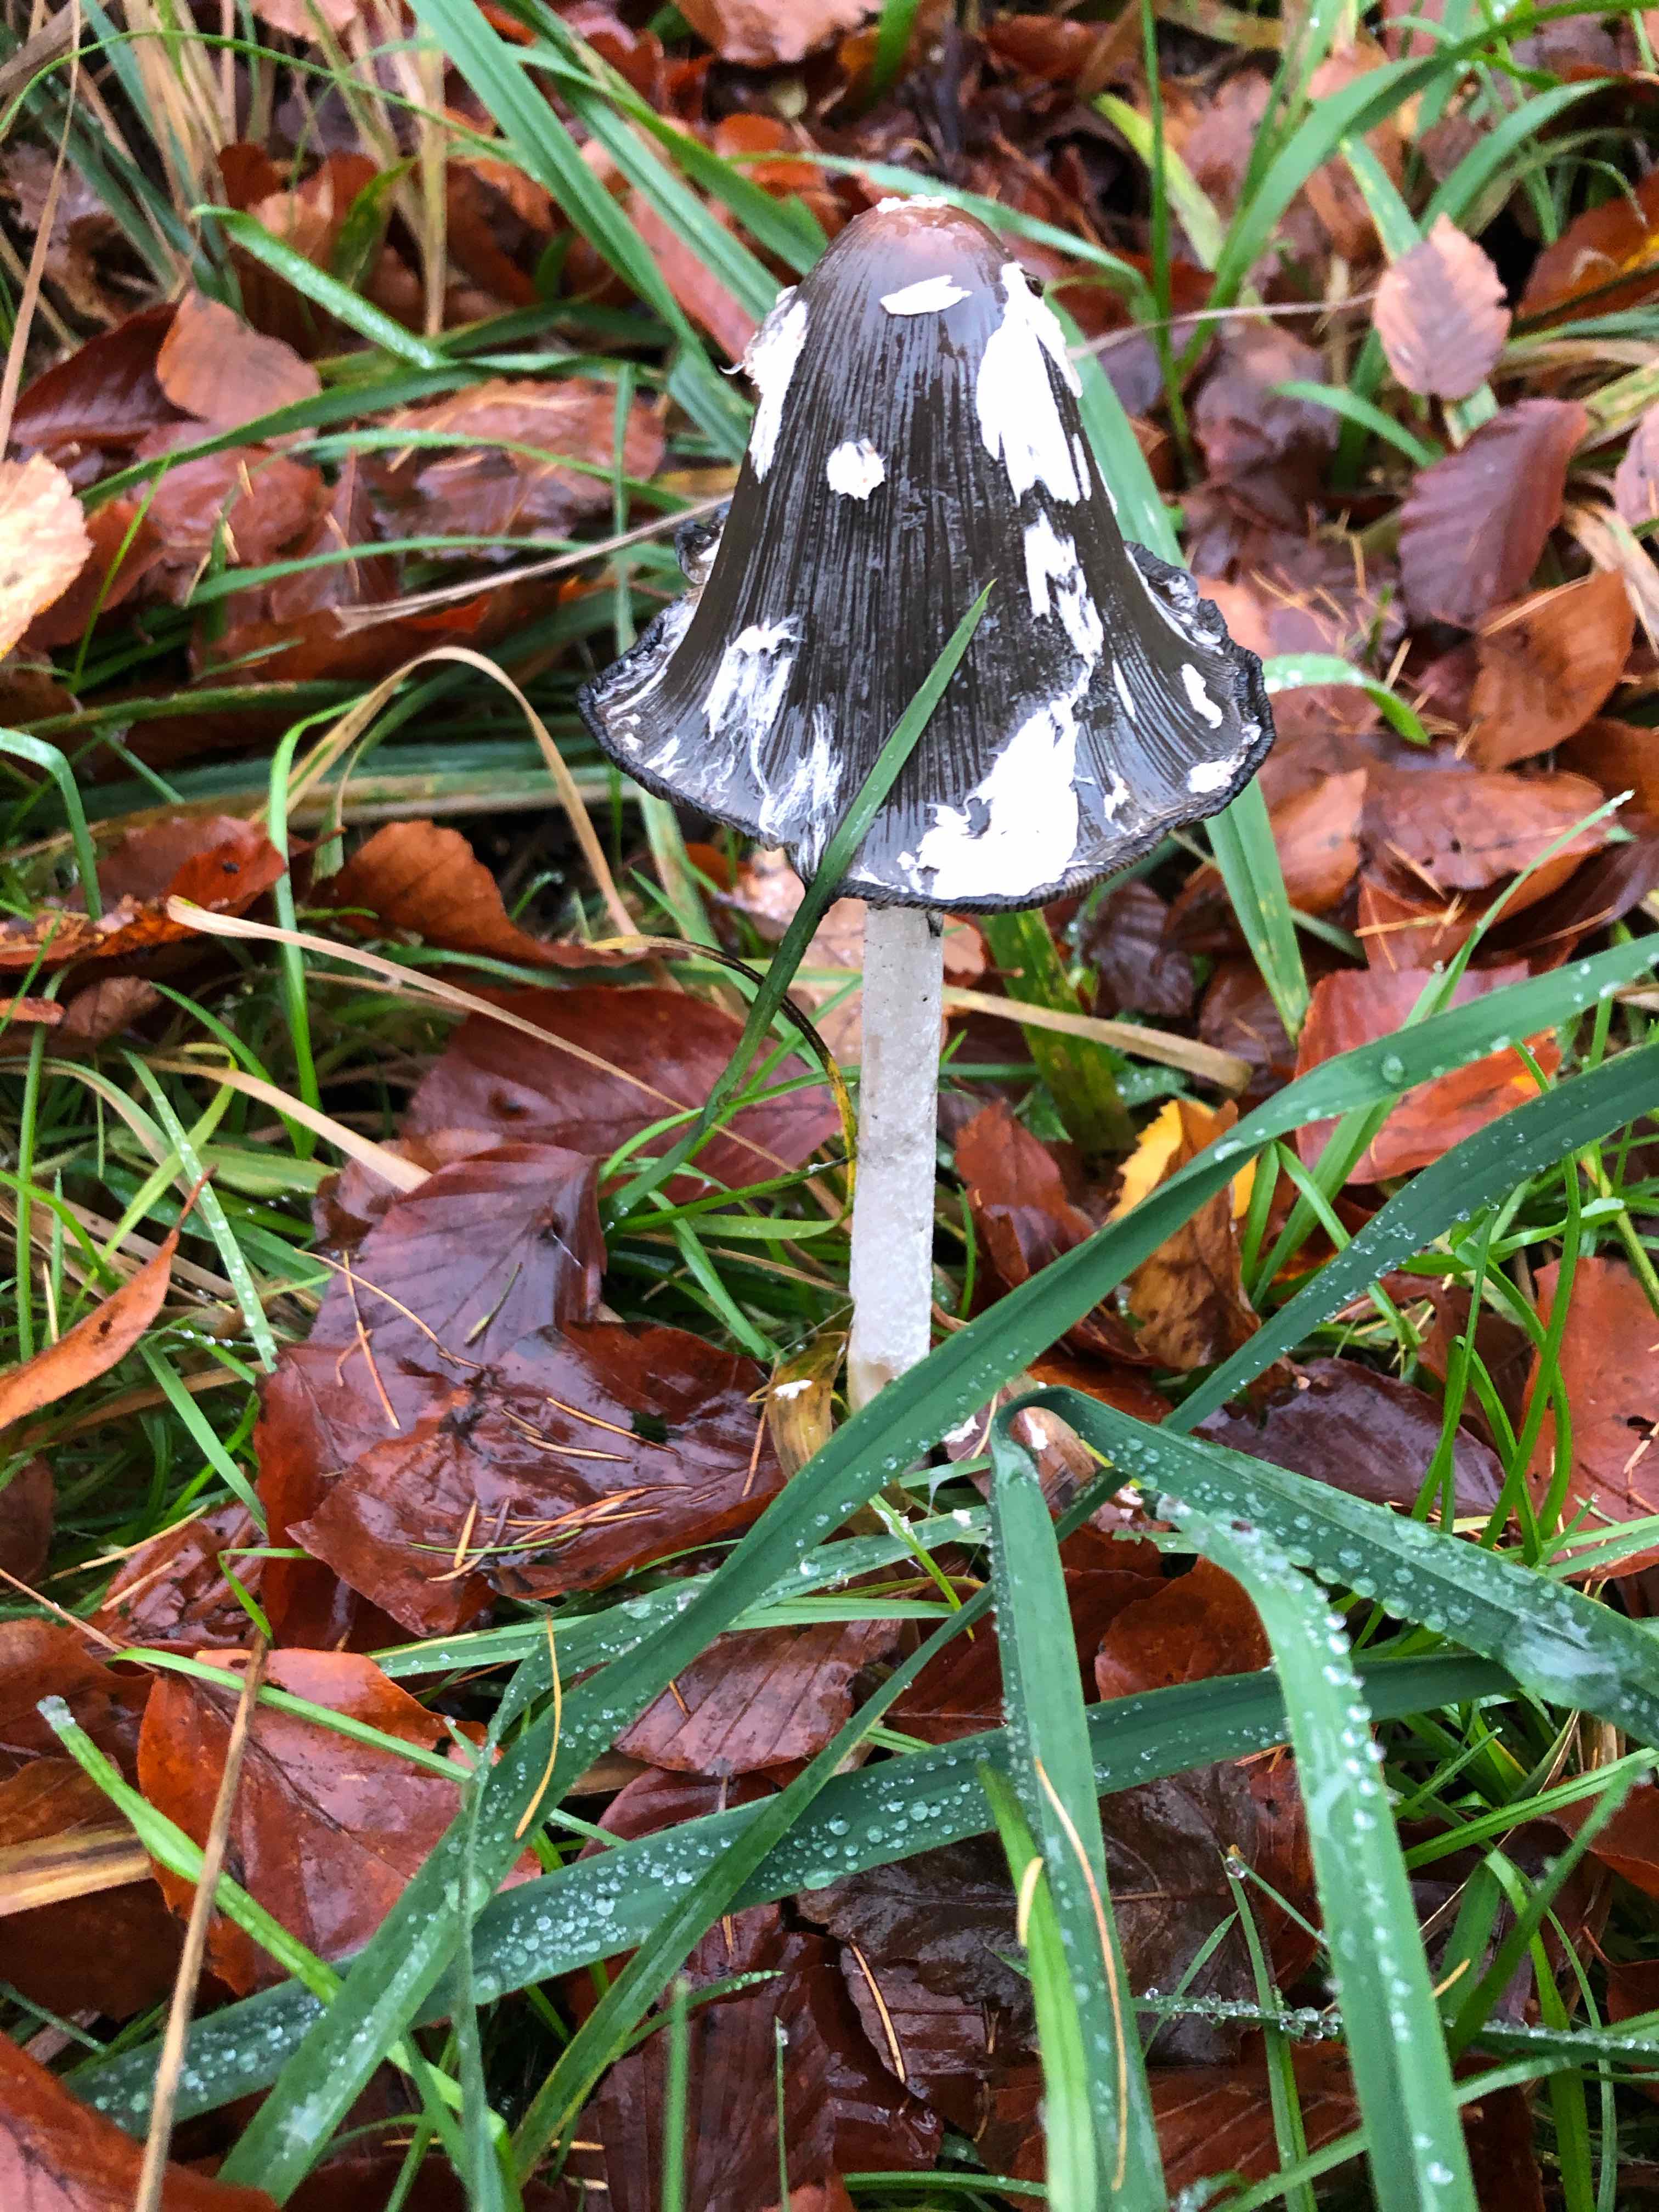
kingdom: Fungi
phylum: Basidiomycota
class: Agaricomycetes
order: Agaricales
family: Psathyrellaceae
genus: Coprinopsis
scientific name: Coprinopsis picacea
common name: skade-blækhat
